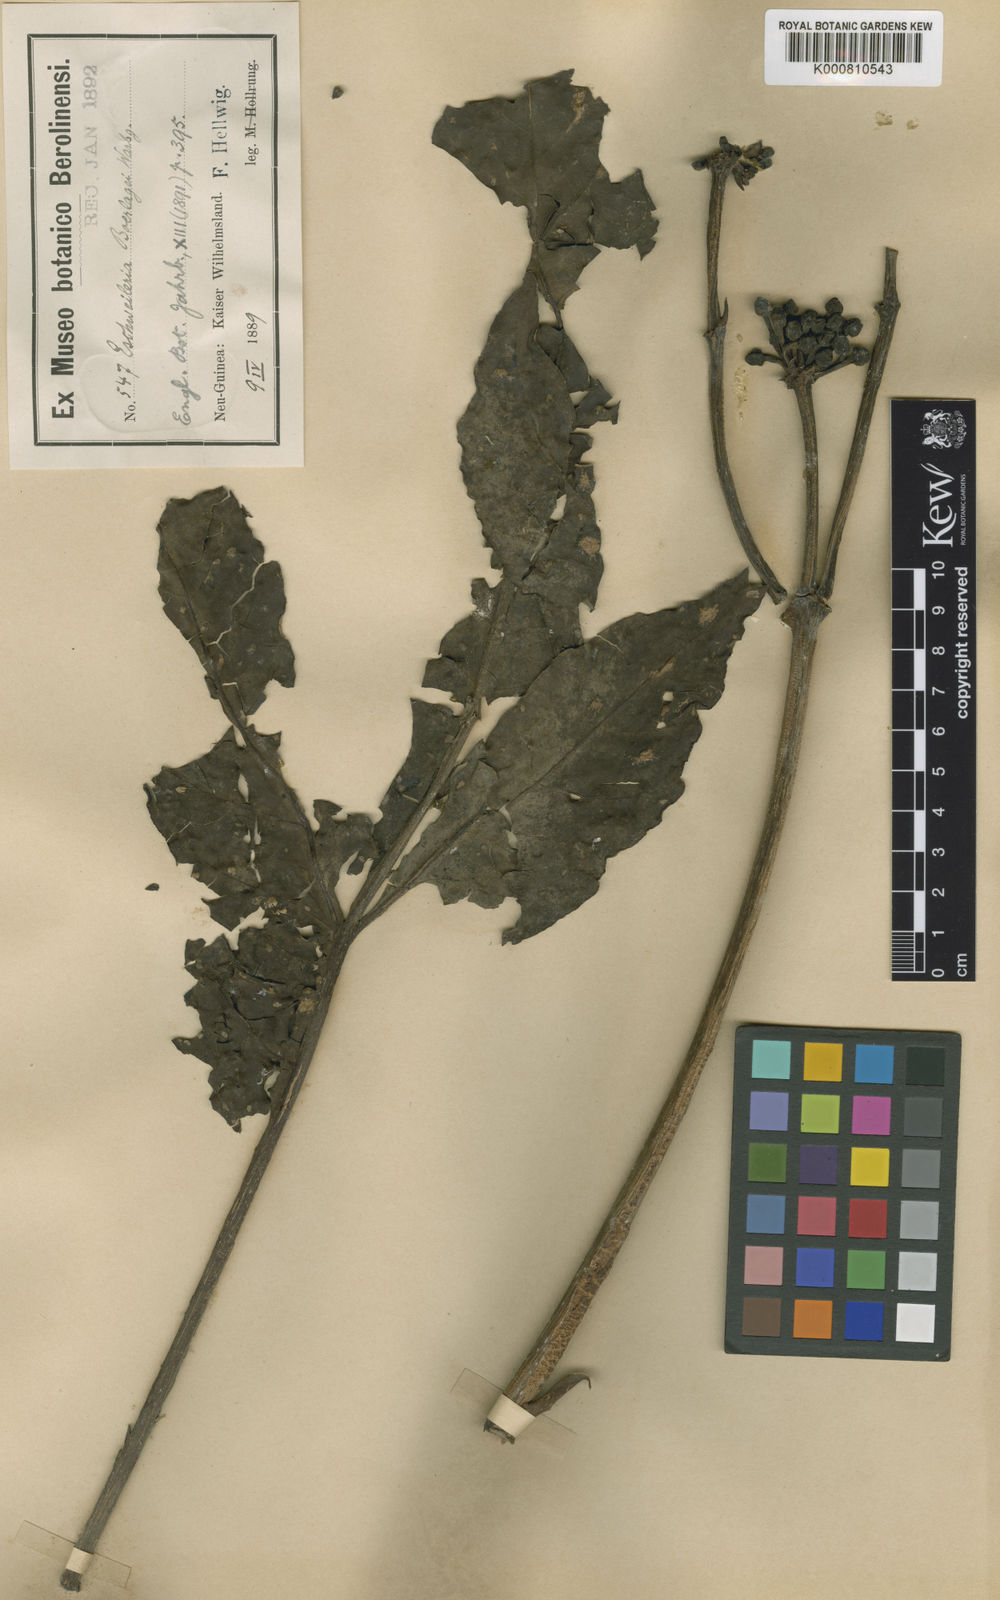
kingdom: Plantae
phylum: Tracheophyta
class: Magnoliopsida
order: Apiales
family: Araliaceae
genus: Osmoxylon
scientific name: Osmoxylon boerlagei
